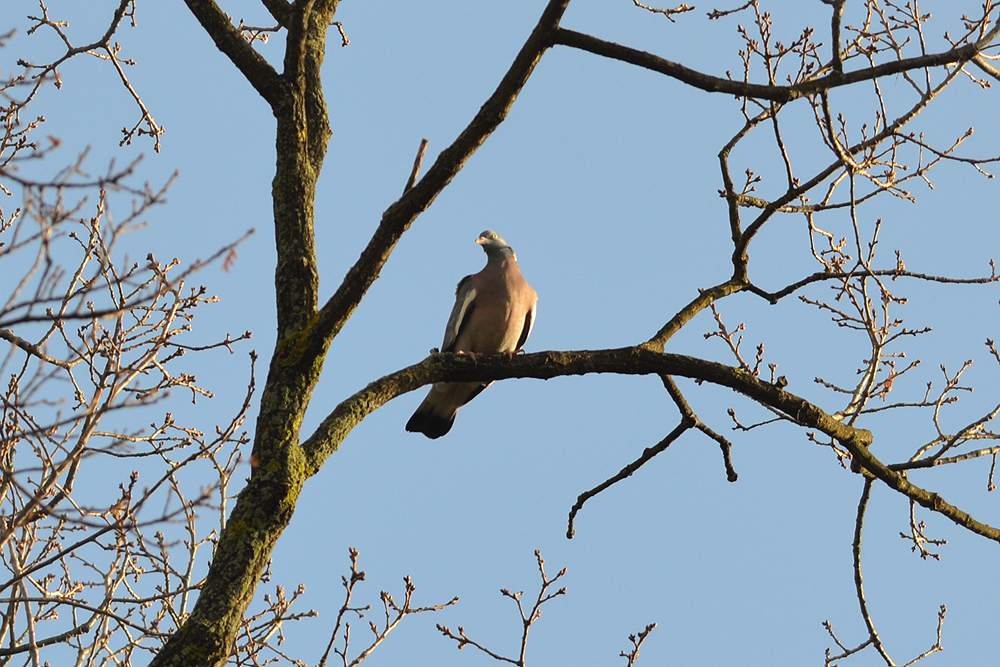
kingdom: Animalia
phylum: Chordata
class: Aves
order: Columbiformes
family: Columbidae
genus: Columba
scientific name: Columba palumbus
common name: Common wood pigeon
